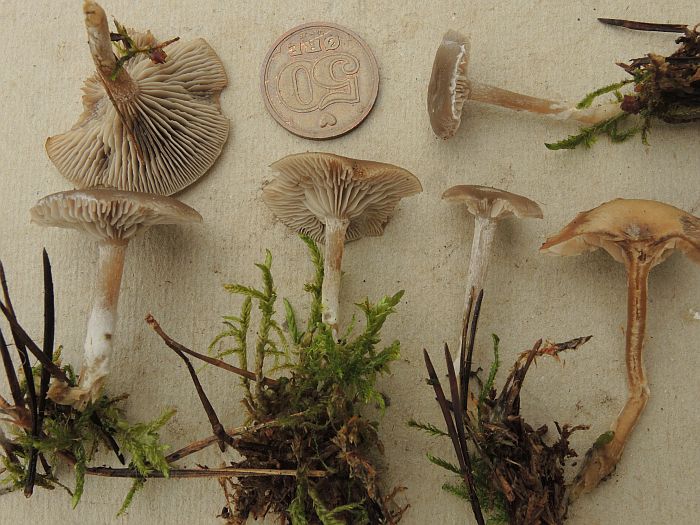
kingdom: Fungi
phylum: Basidiomycota
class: Agaricomycetes
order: Agaricales
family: Tricholomataceae
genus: Clitocybe
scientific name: Clitocybe vibecina
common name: randstribet tragthat
